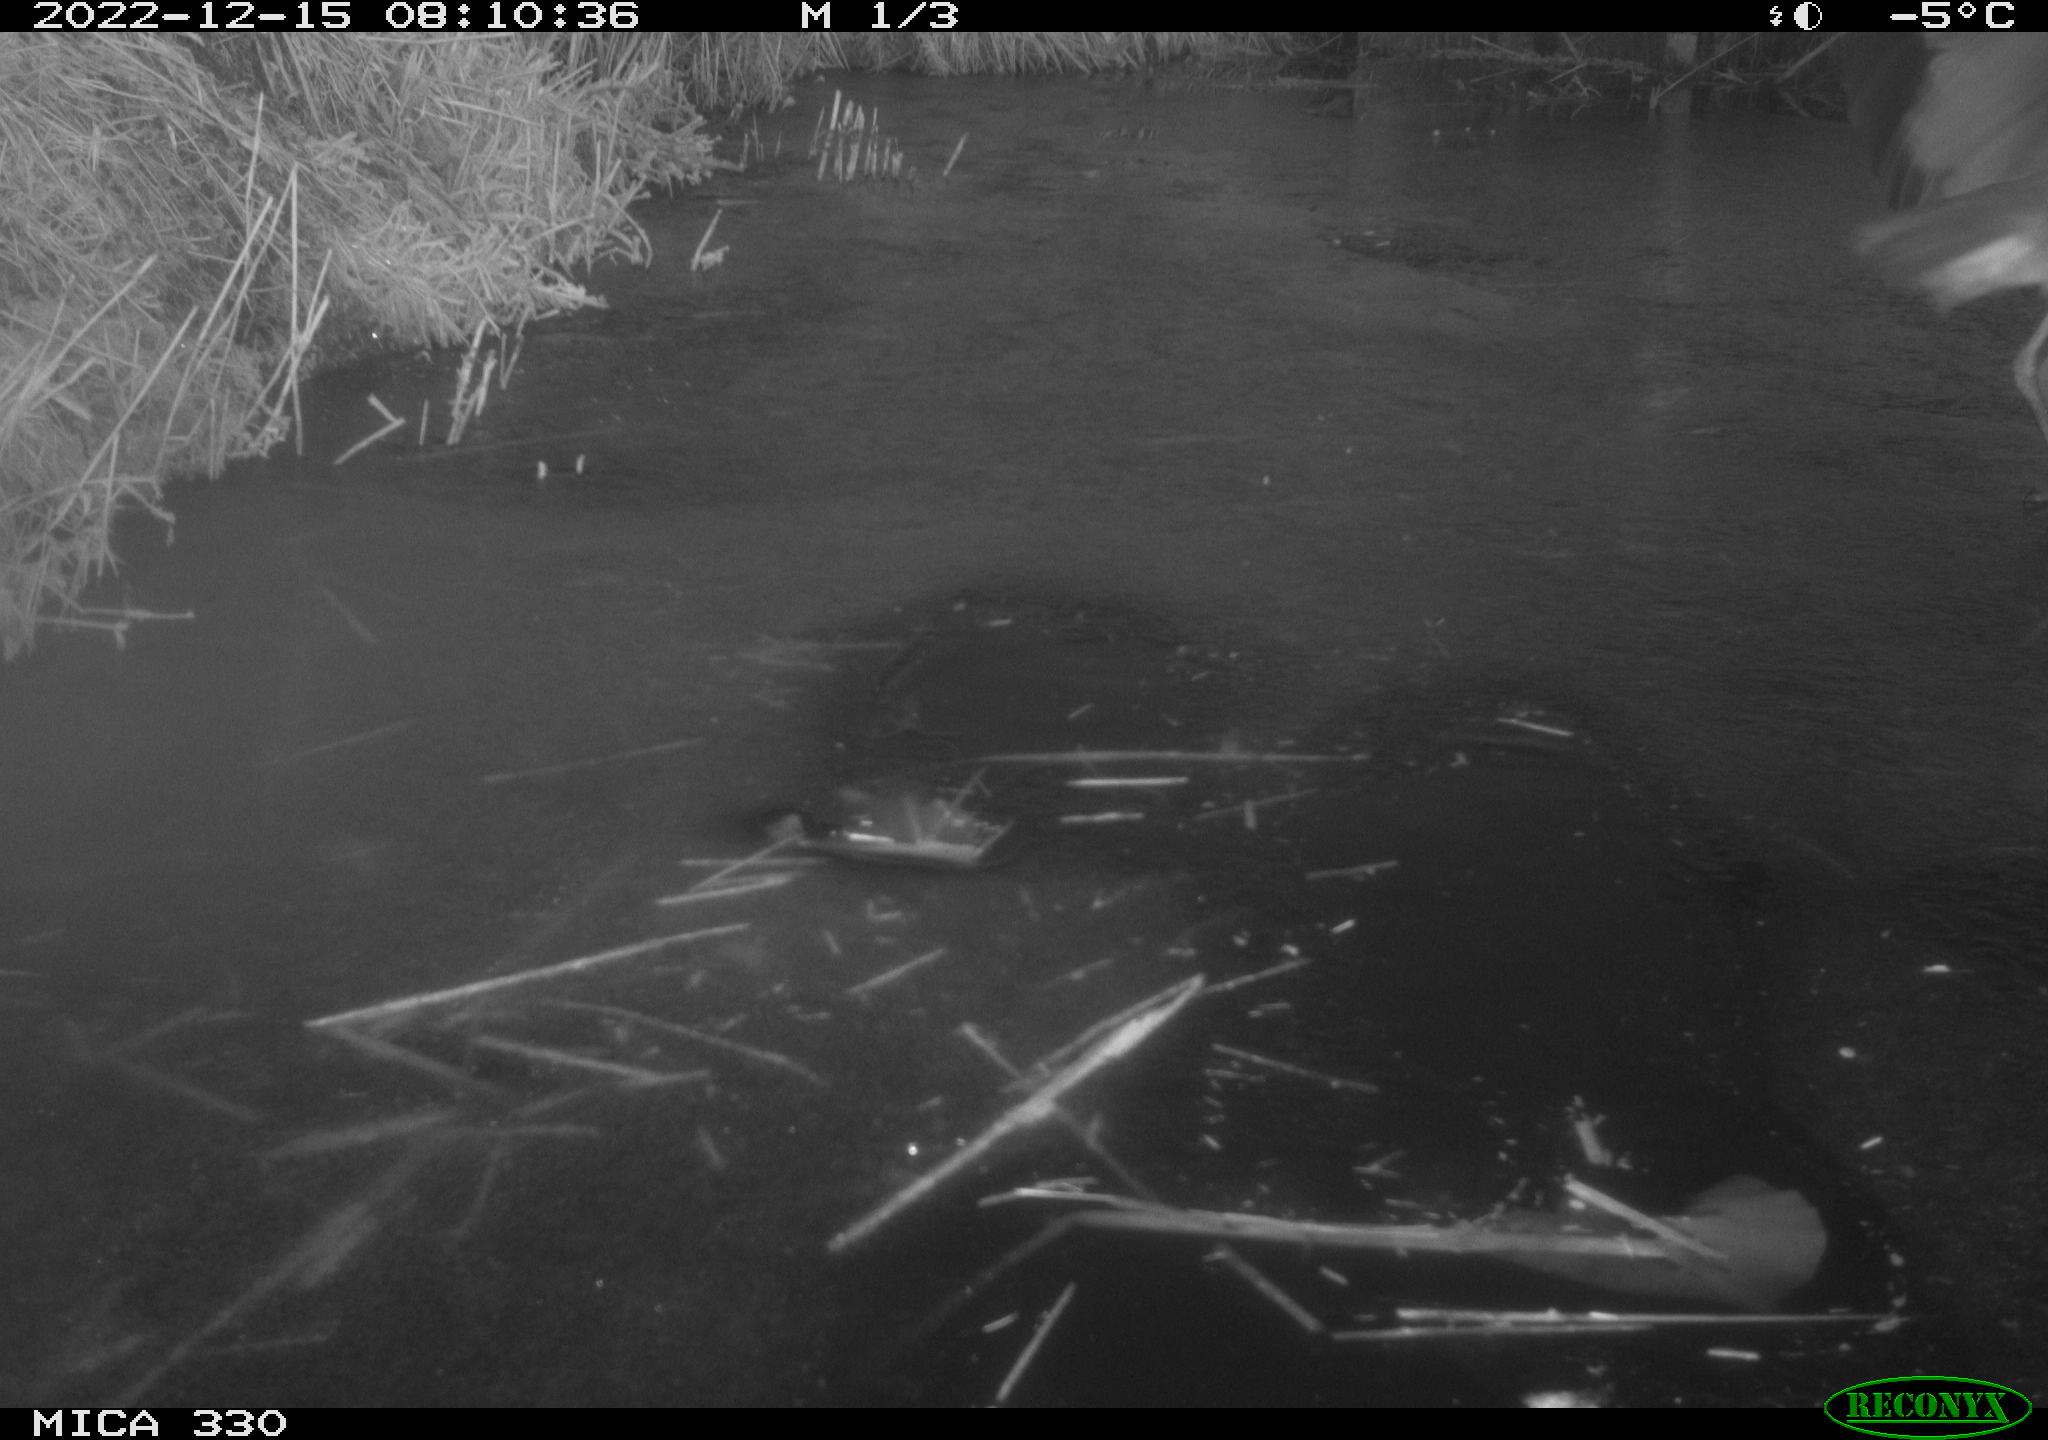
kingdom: Animalia
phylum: Chordata
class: Aves
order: Pelecaniformes
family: Ardeidae
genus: Ardea
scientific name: Ardea cinerea
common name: Grey heron
